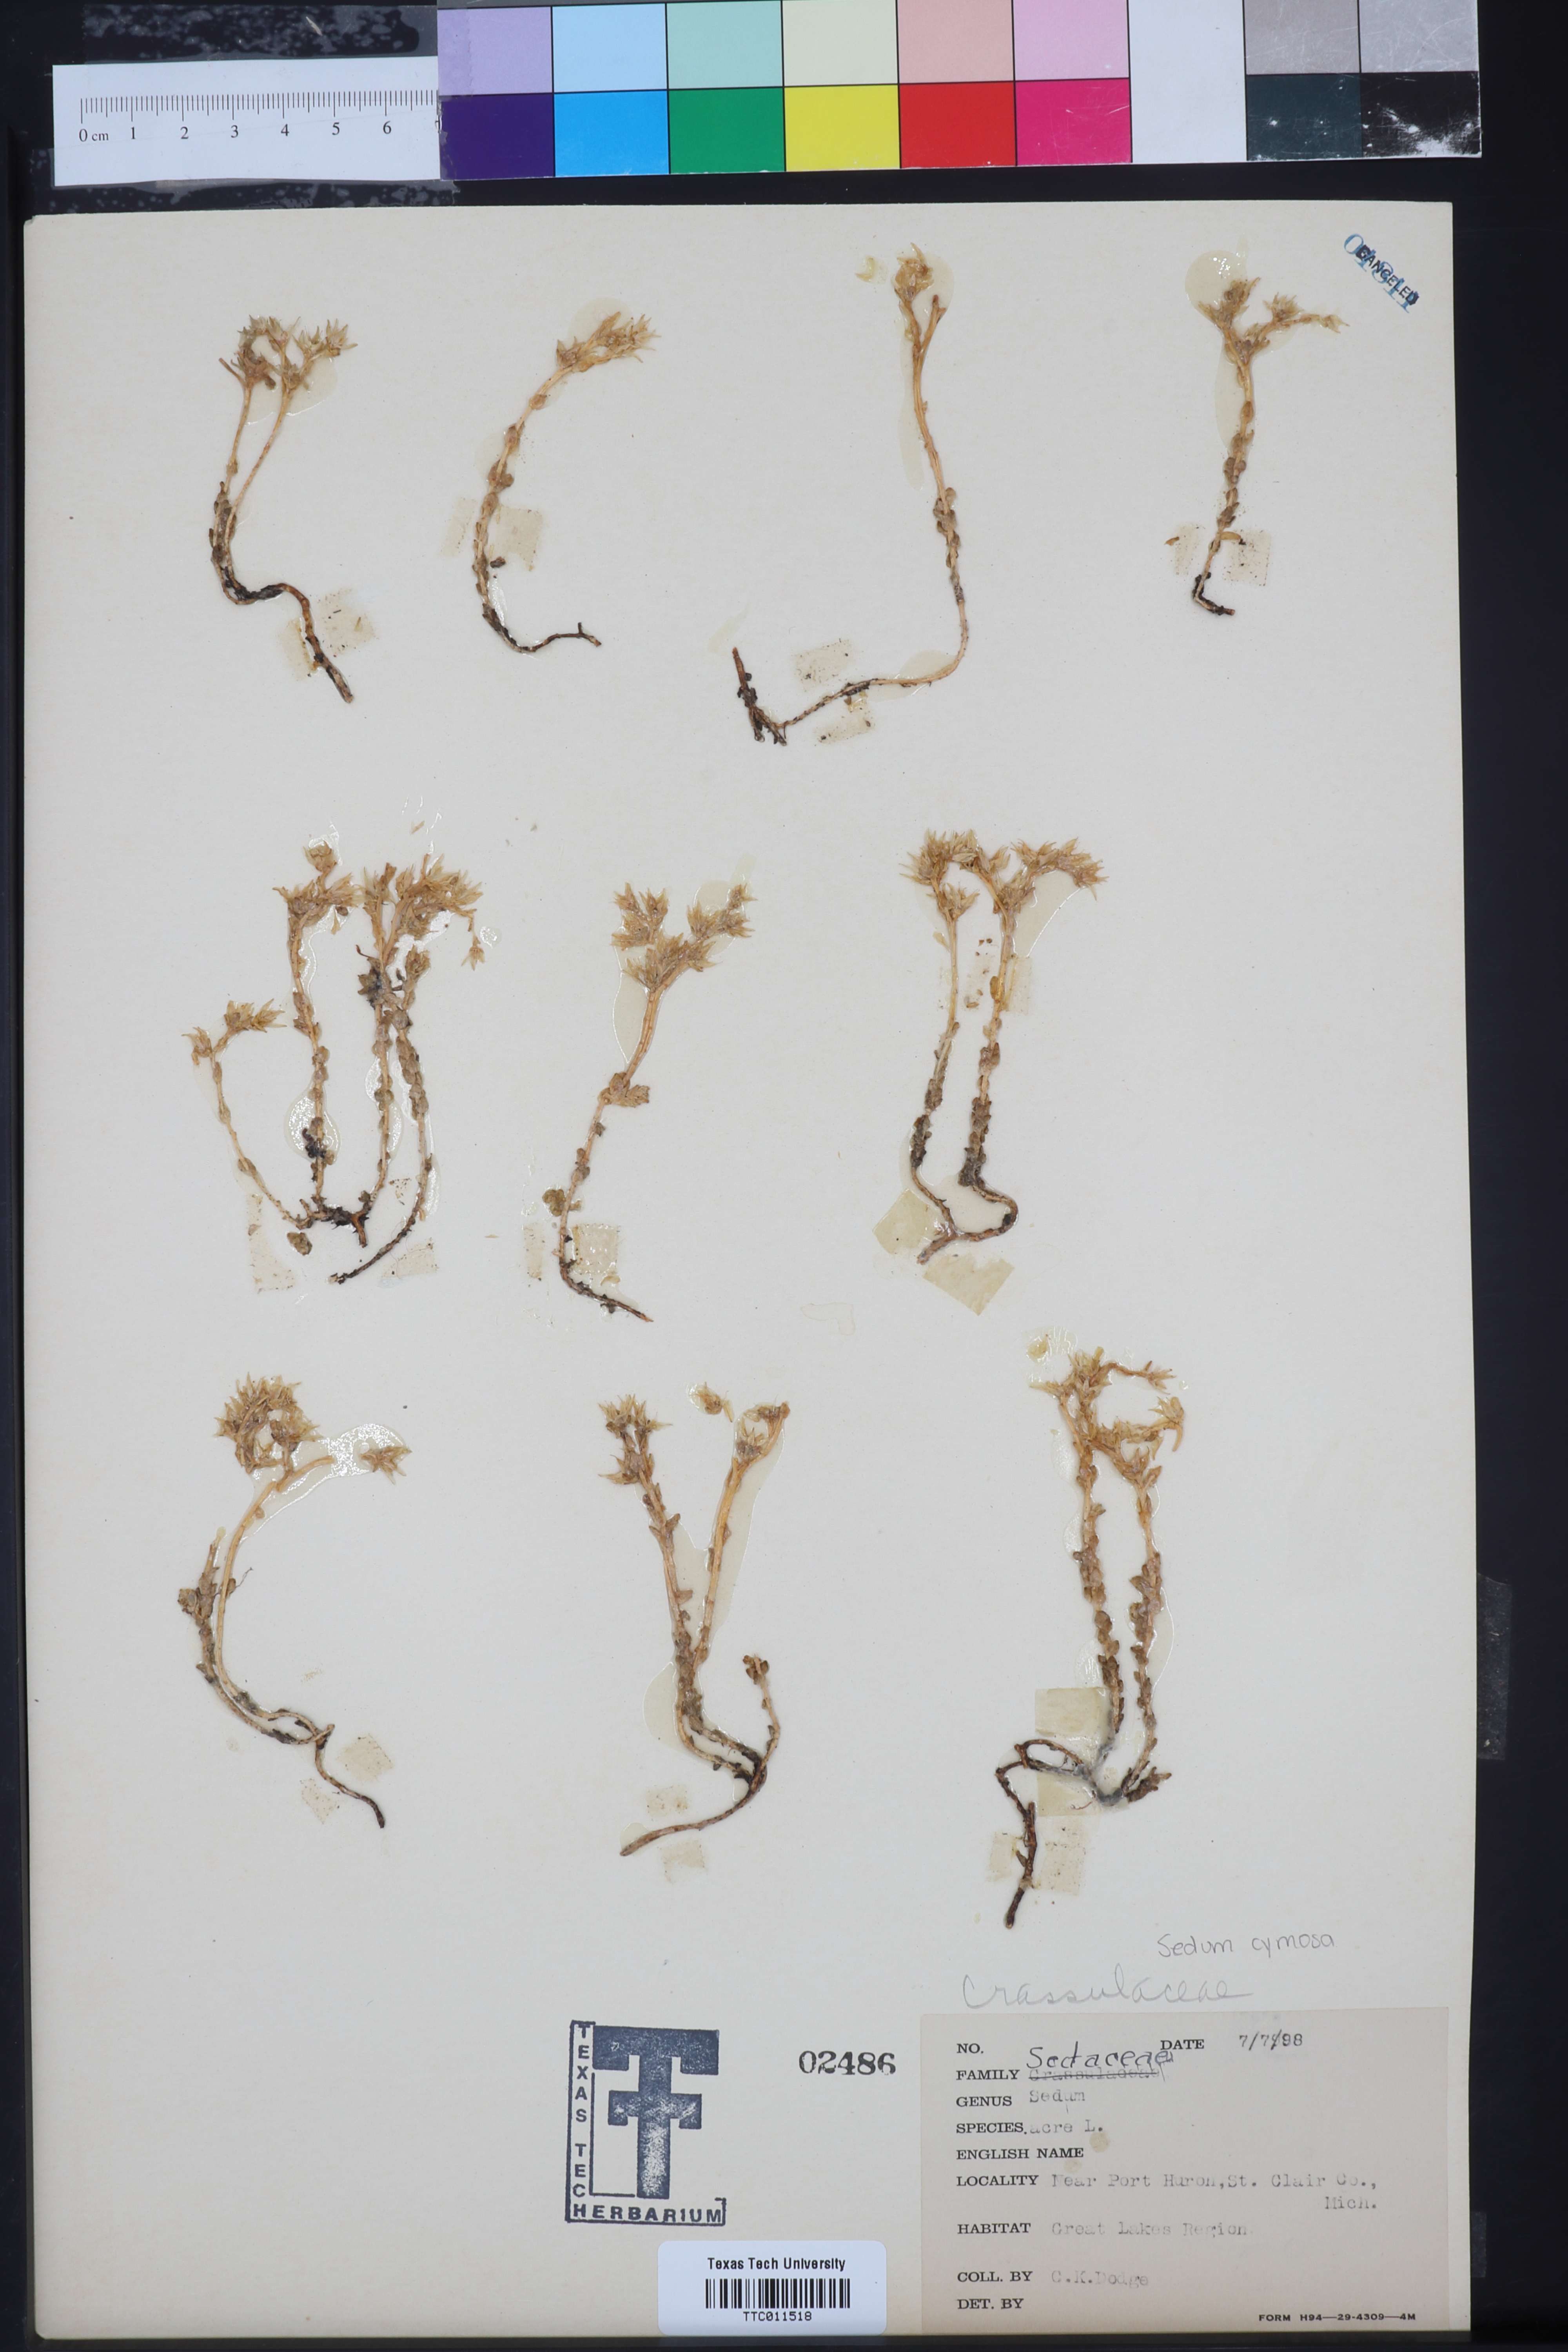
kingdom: Plantae
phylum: Tracheophyta
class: Magnoliopsida
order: Saxifragales
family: Crassulaceae
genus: Sedum
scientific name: Sedum acre
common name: Biting stonecrop
